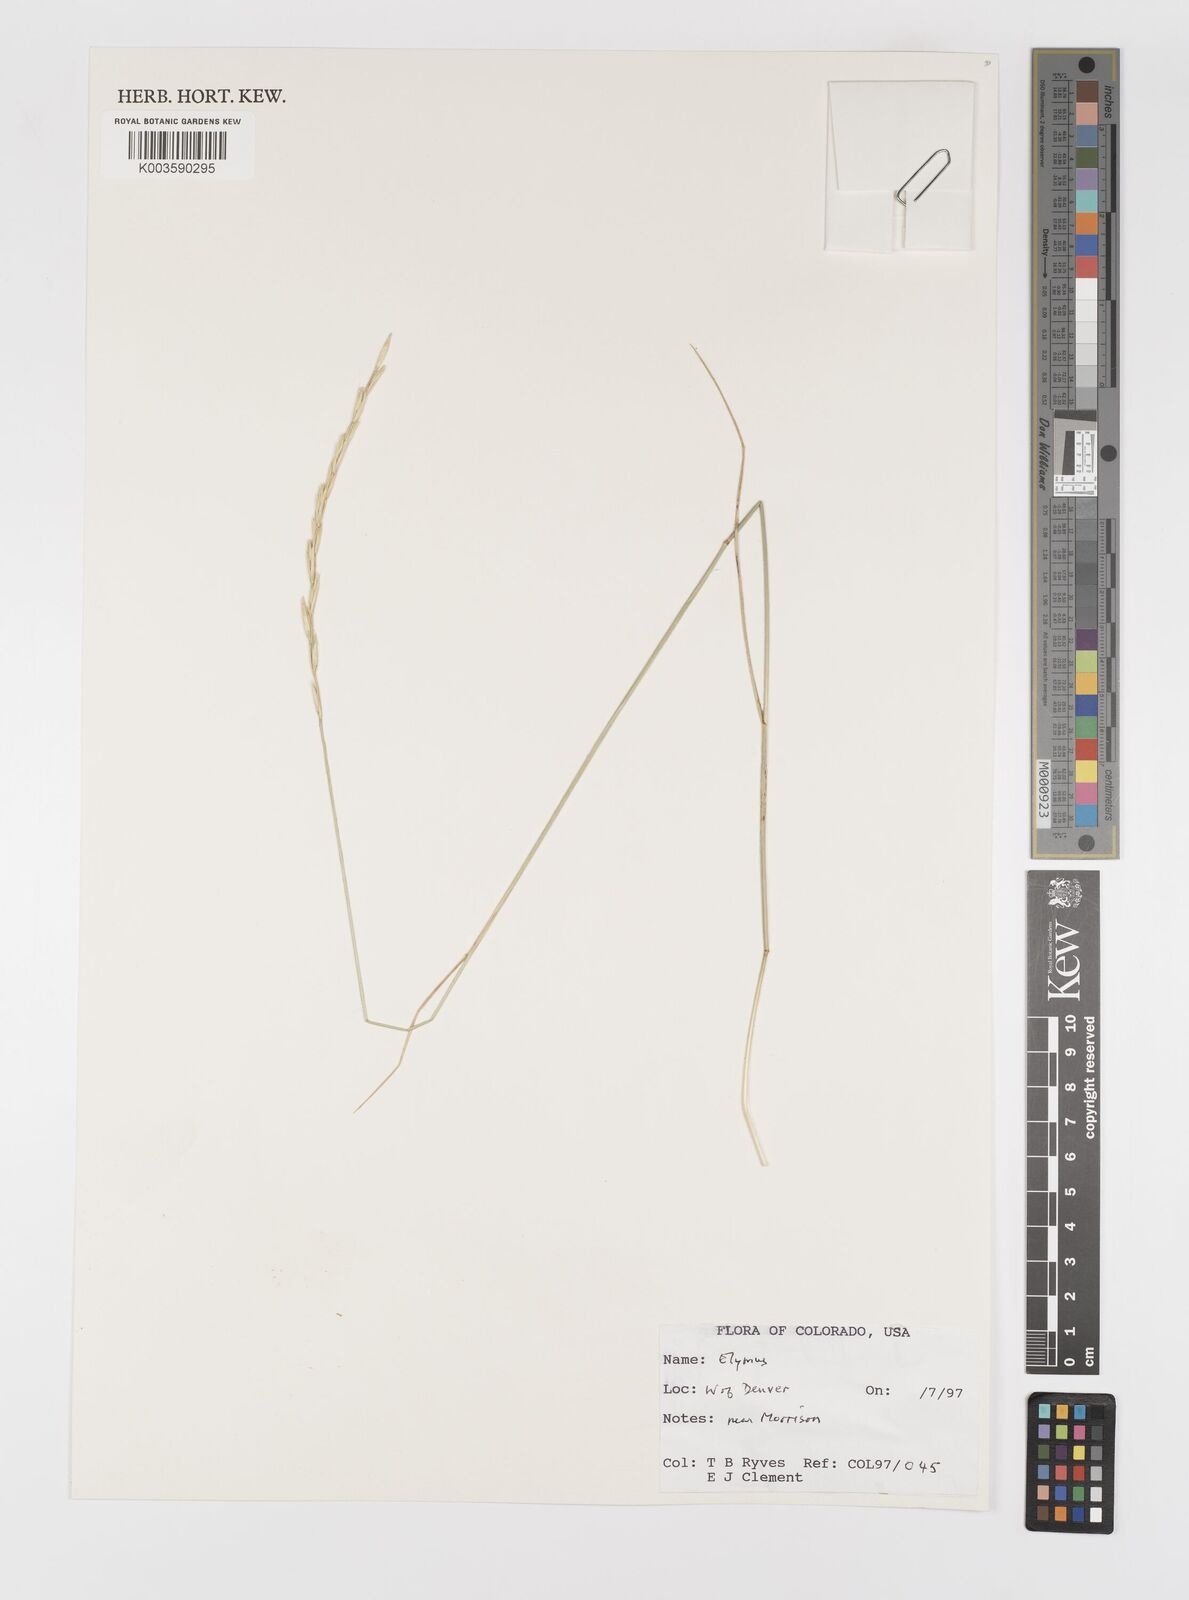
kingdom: Plantae
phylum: Tracheophyta
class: Liliopsida
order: Poales
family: Poaceae
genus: Elymus
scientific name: Elymus
